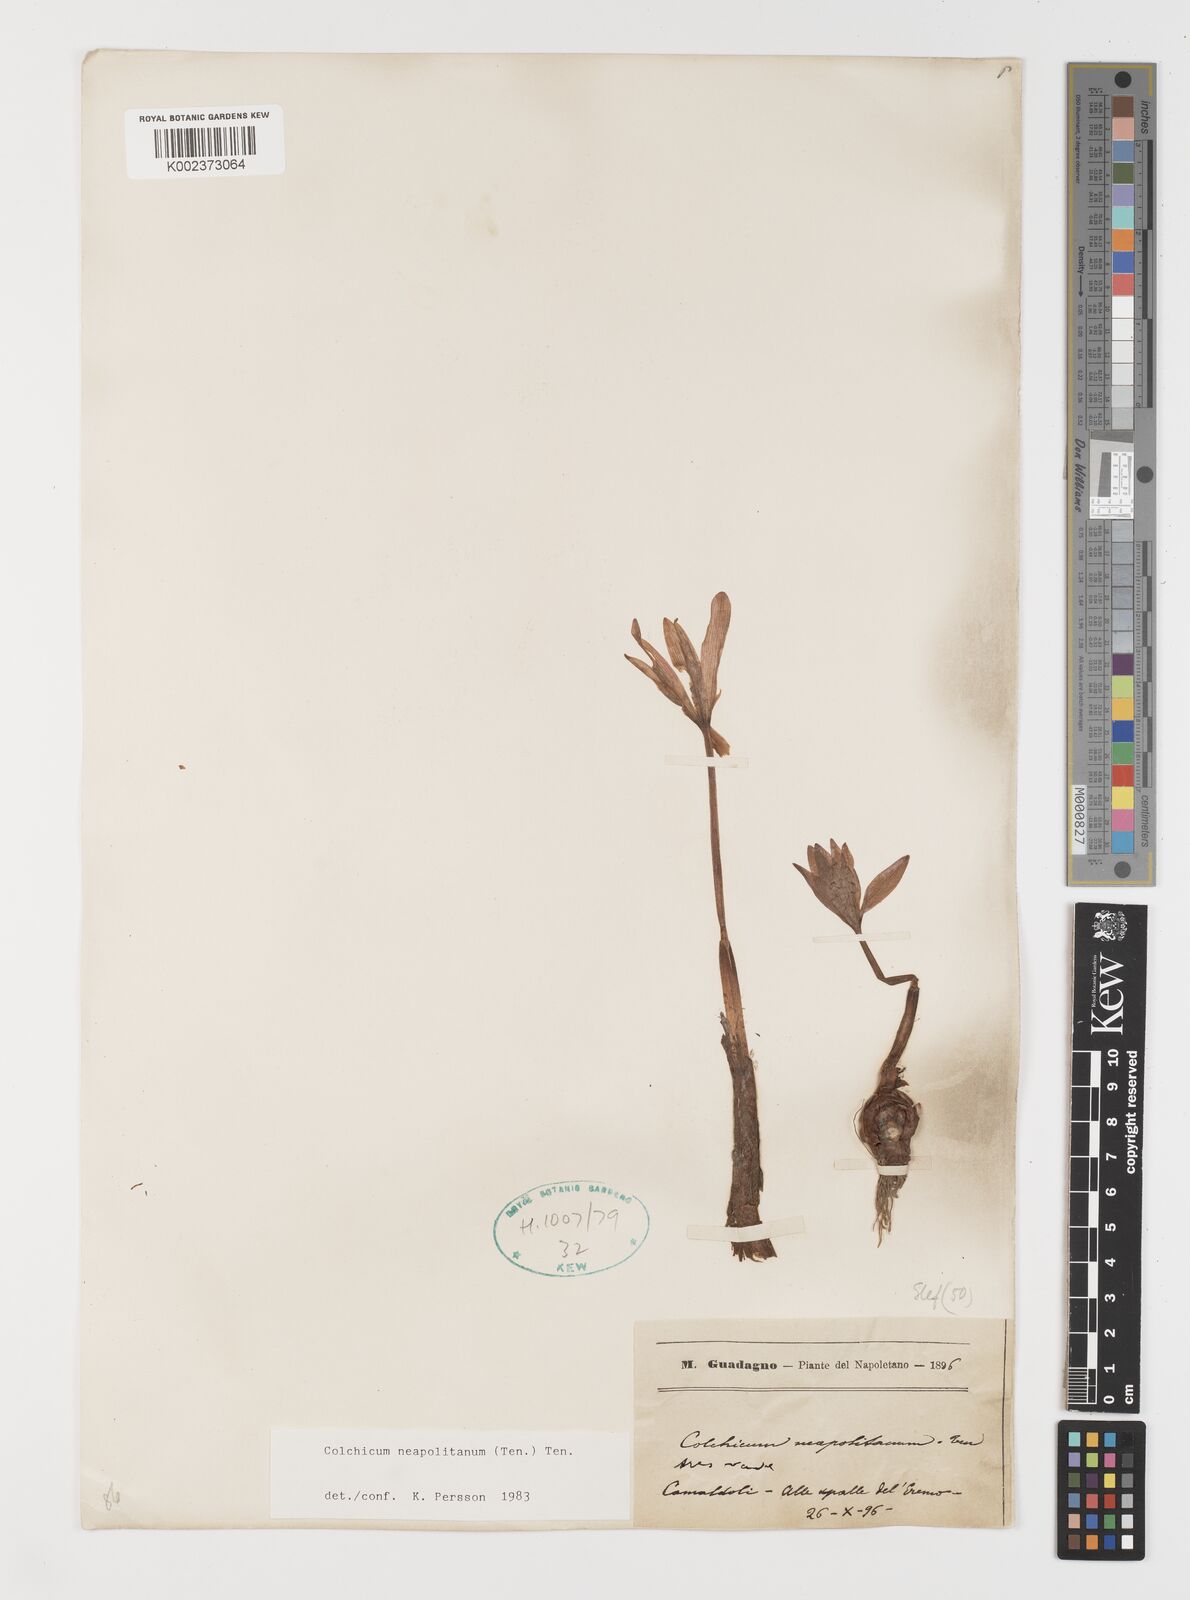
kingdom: Plantae
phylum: Tracheophyta
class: Liliopsida
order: Liliales
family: Colchicaceae
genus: Colchicum
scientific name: Colchicum neapolitanum
